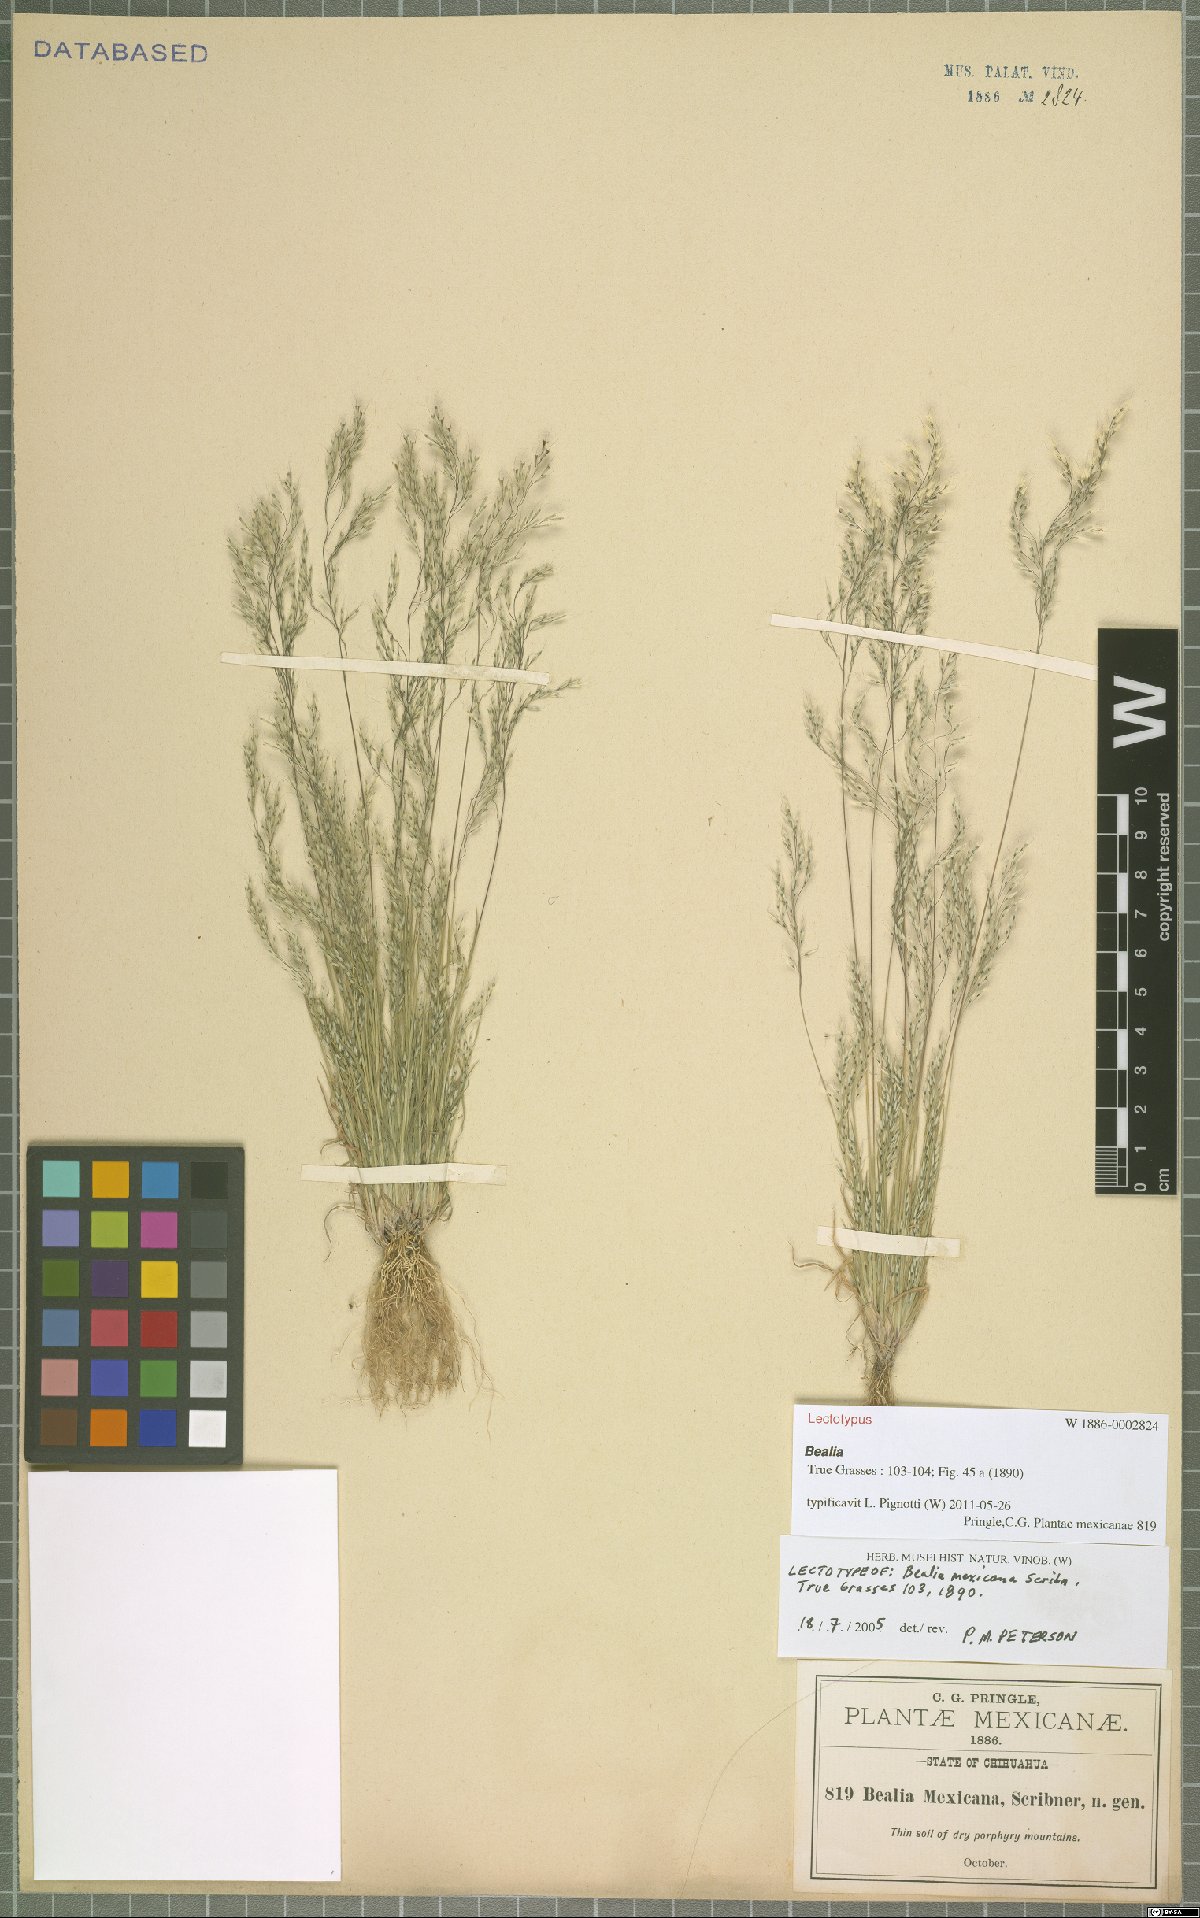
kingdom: Plantae
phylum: Tracheophyta
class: Liliopsida
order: Poales
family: Poaceae
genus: Muhlenbergia
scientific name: Muhlenbergia biloba
